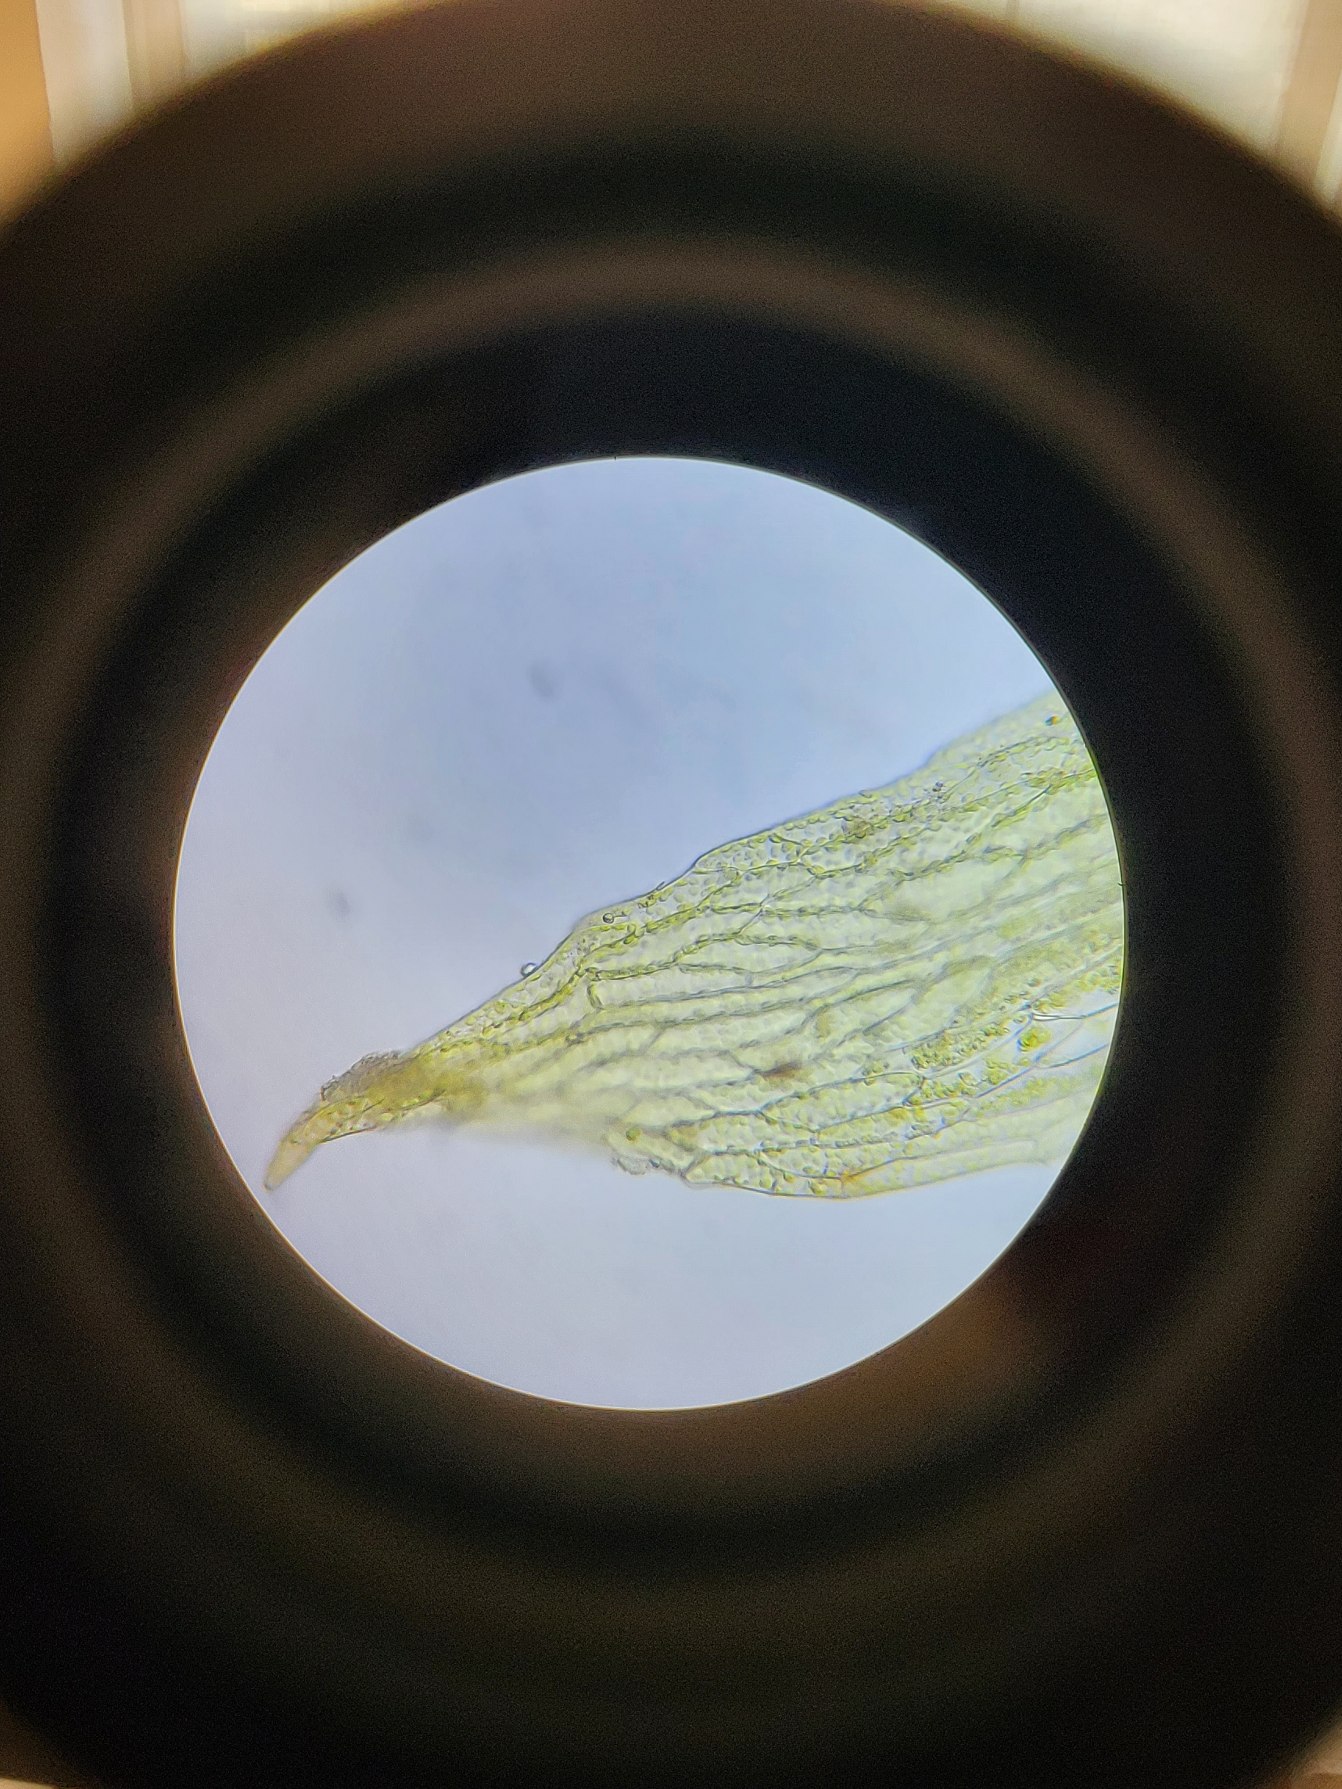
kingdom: Plantae
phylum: Bryophyta
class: Bryopsida
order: Bryales
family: Mniaceae
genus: Pohlia
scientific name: Pohlia melanodon
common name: Spæd voksmos
